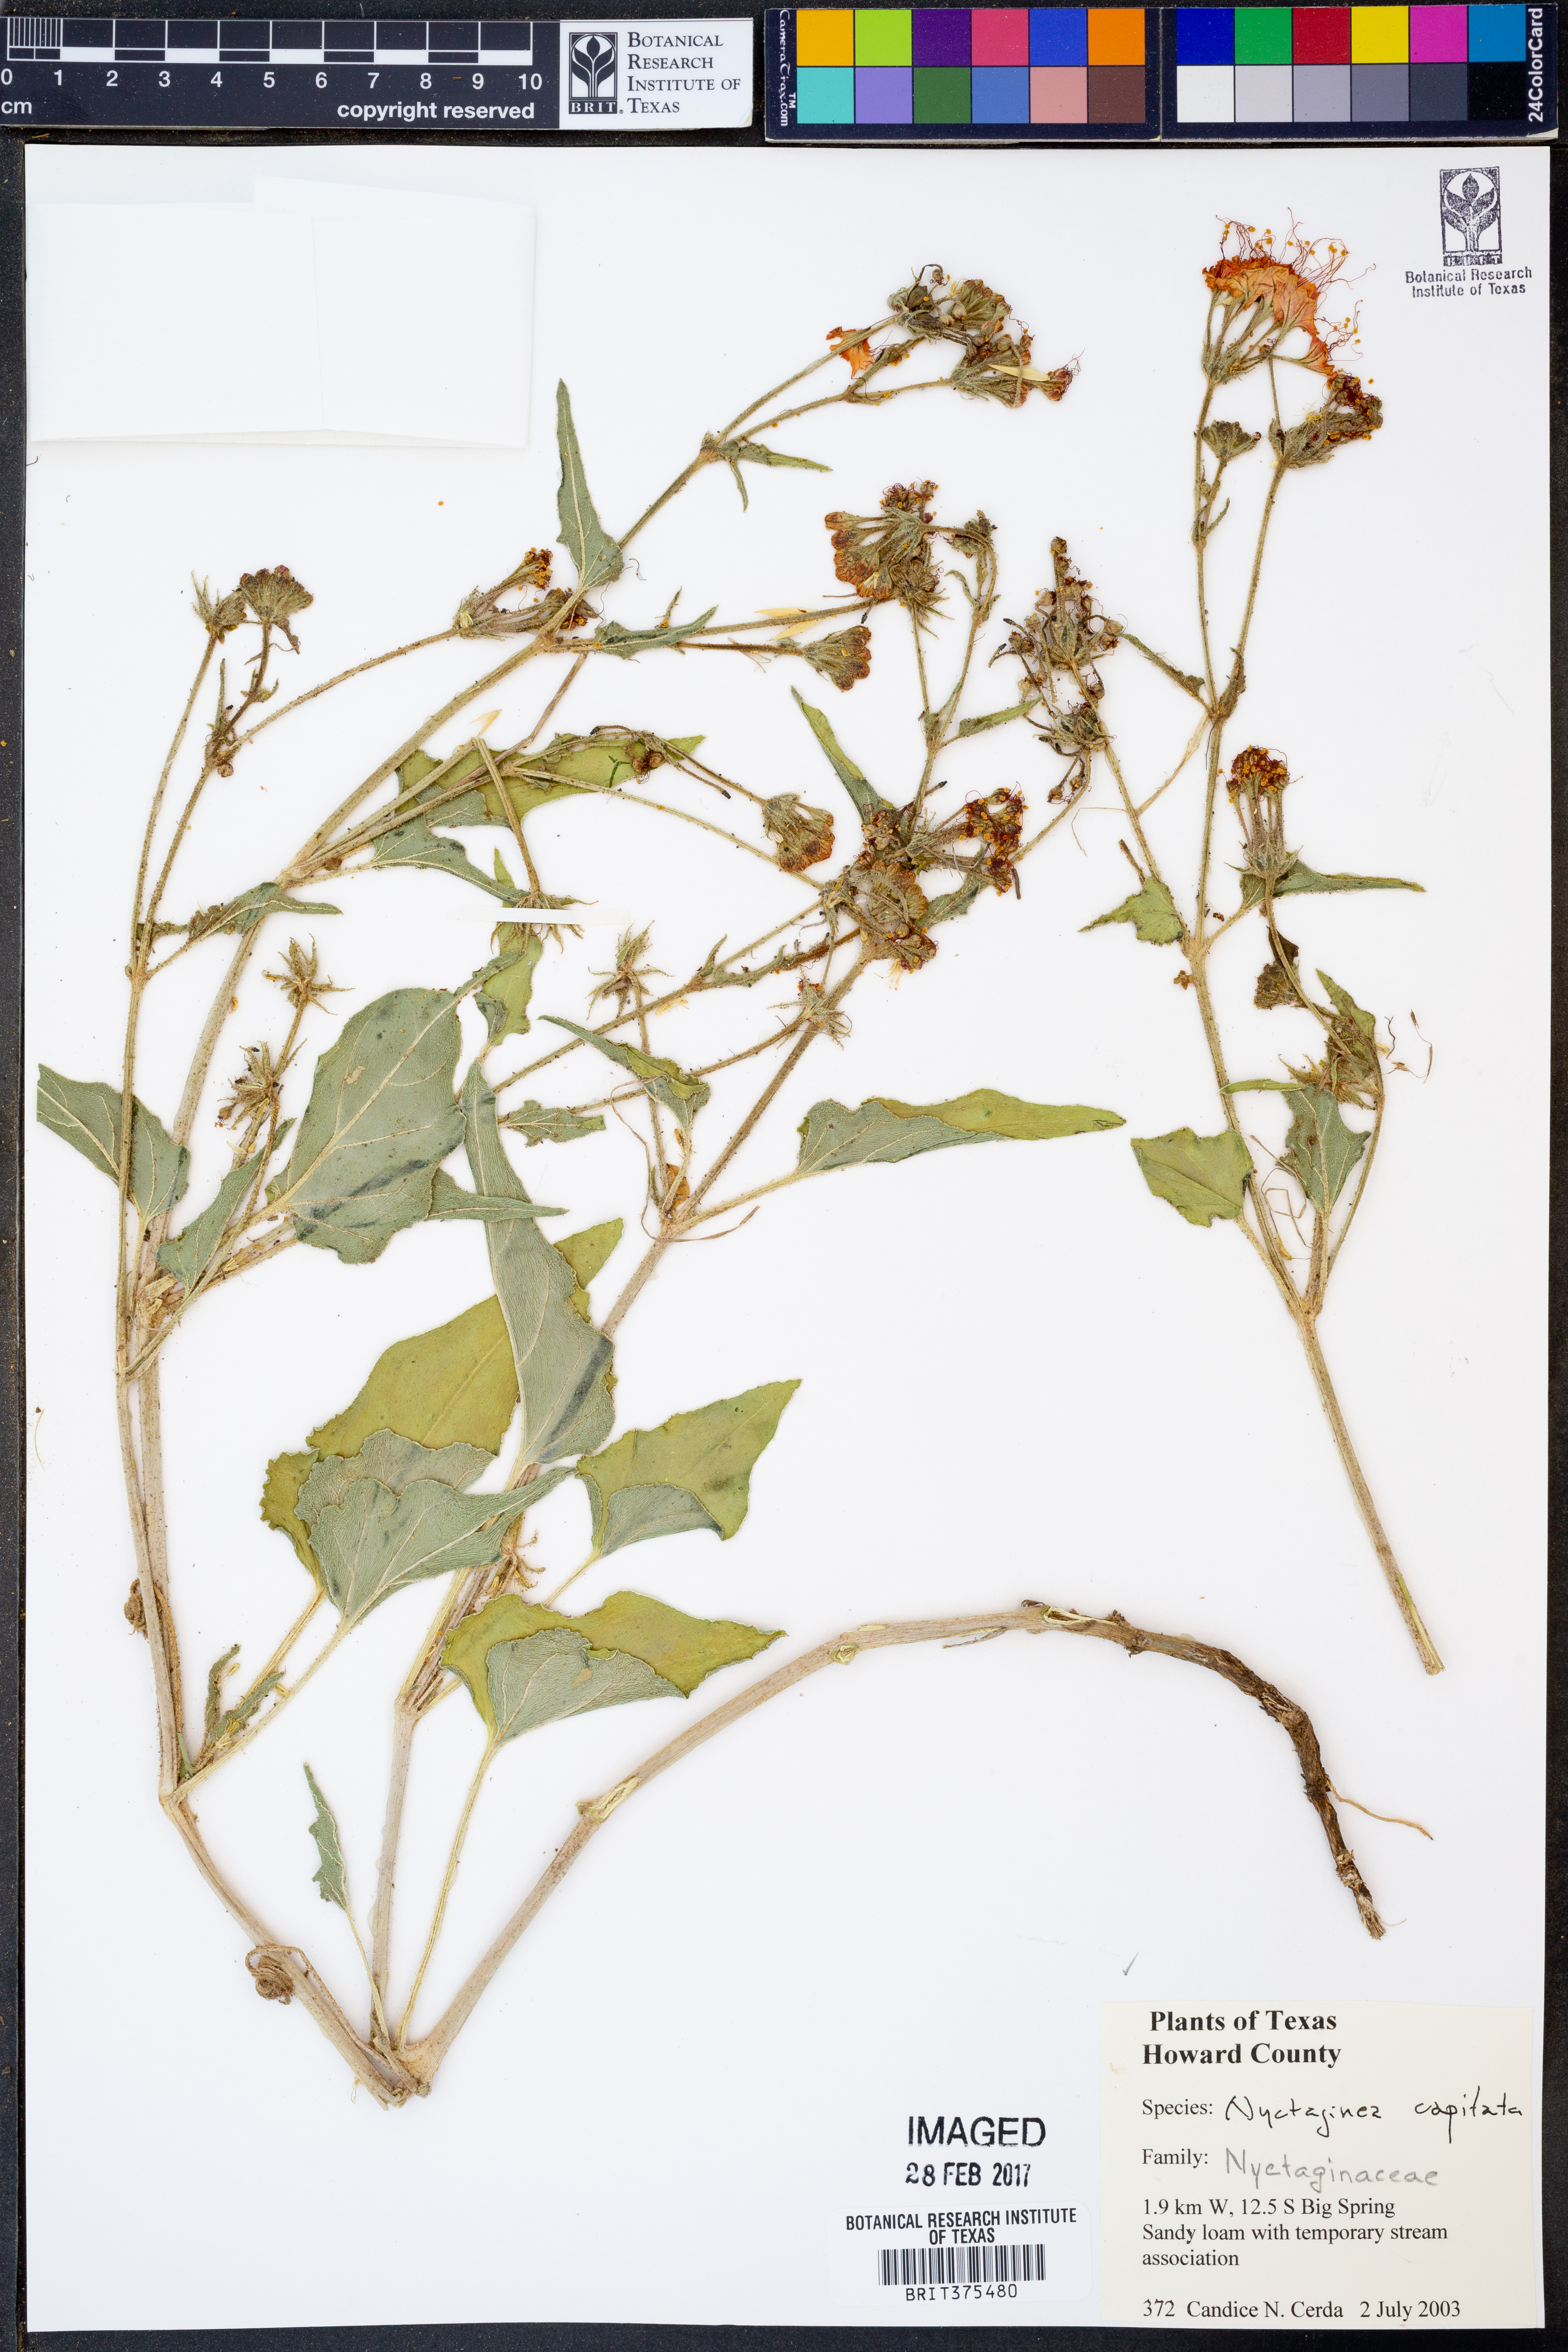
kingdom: Plantae
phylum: Tracheophyta
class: Magnoliopsida
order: Caryophyllales
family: Nyctaginaceae
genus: Nyctaginia
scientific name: Nyctaginia capitata
